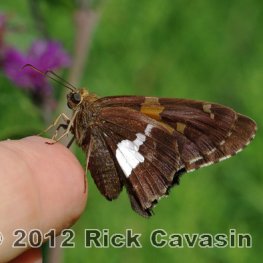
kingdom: Animalia
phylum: Arthropoda
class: Insecta
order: Lepidoptera
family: Hesperiidae
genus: Epargyreus
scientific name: Epargyreus clarus
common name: Silver-spotted Skipper
